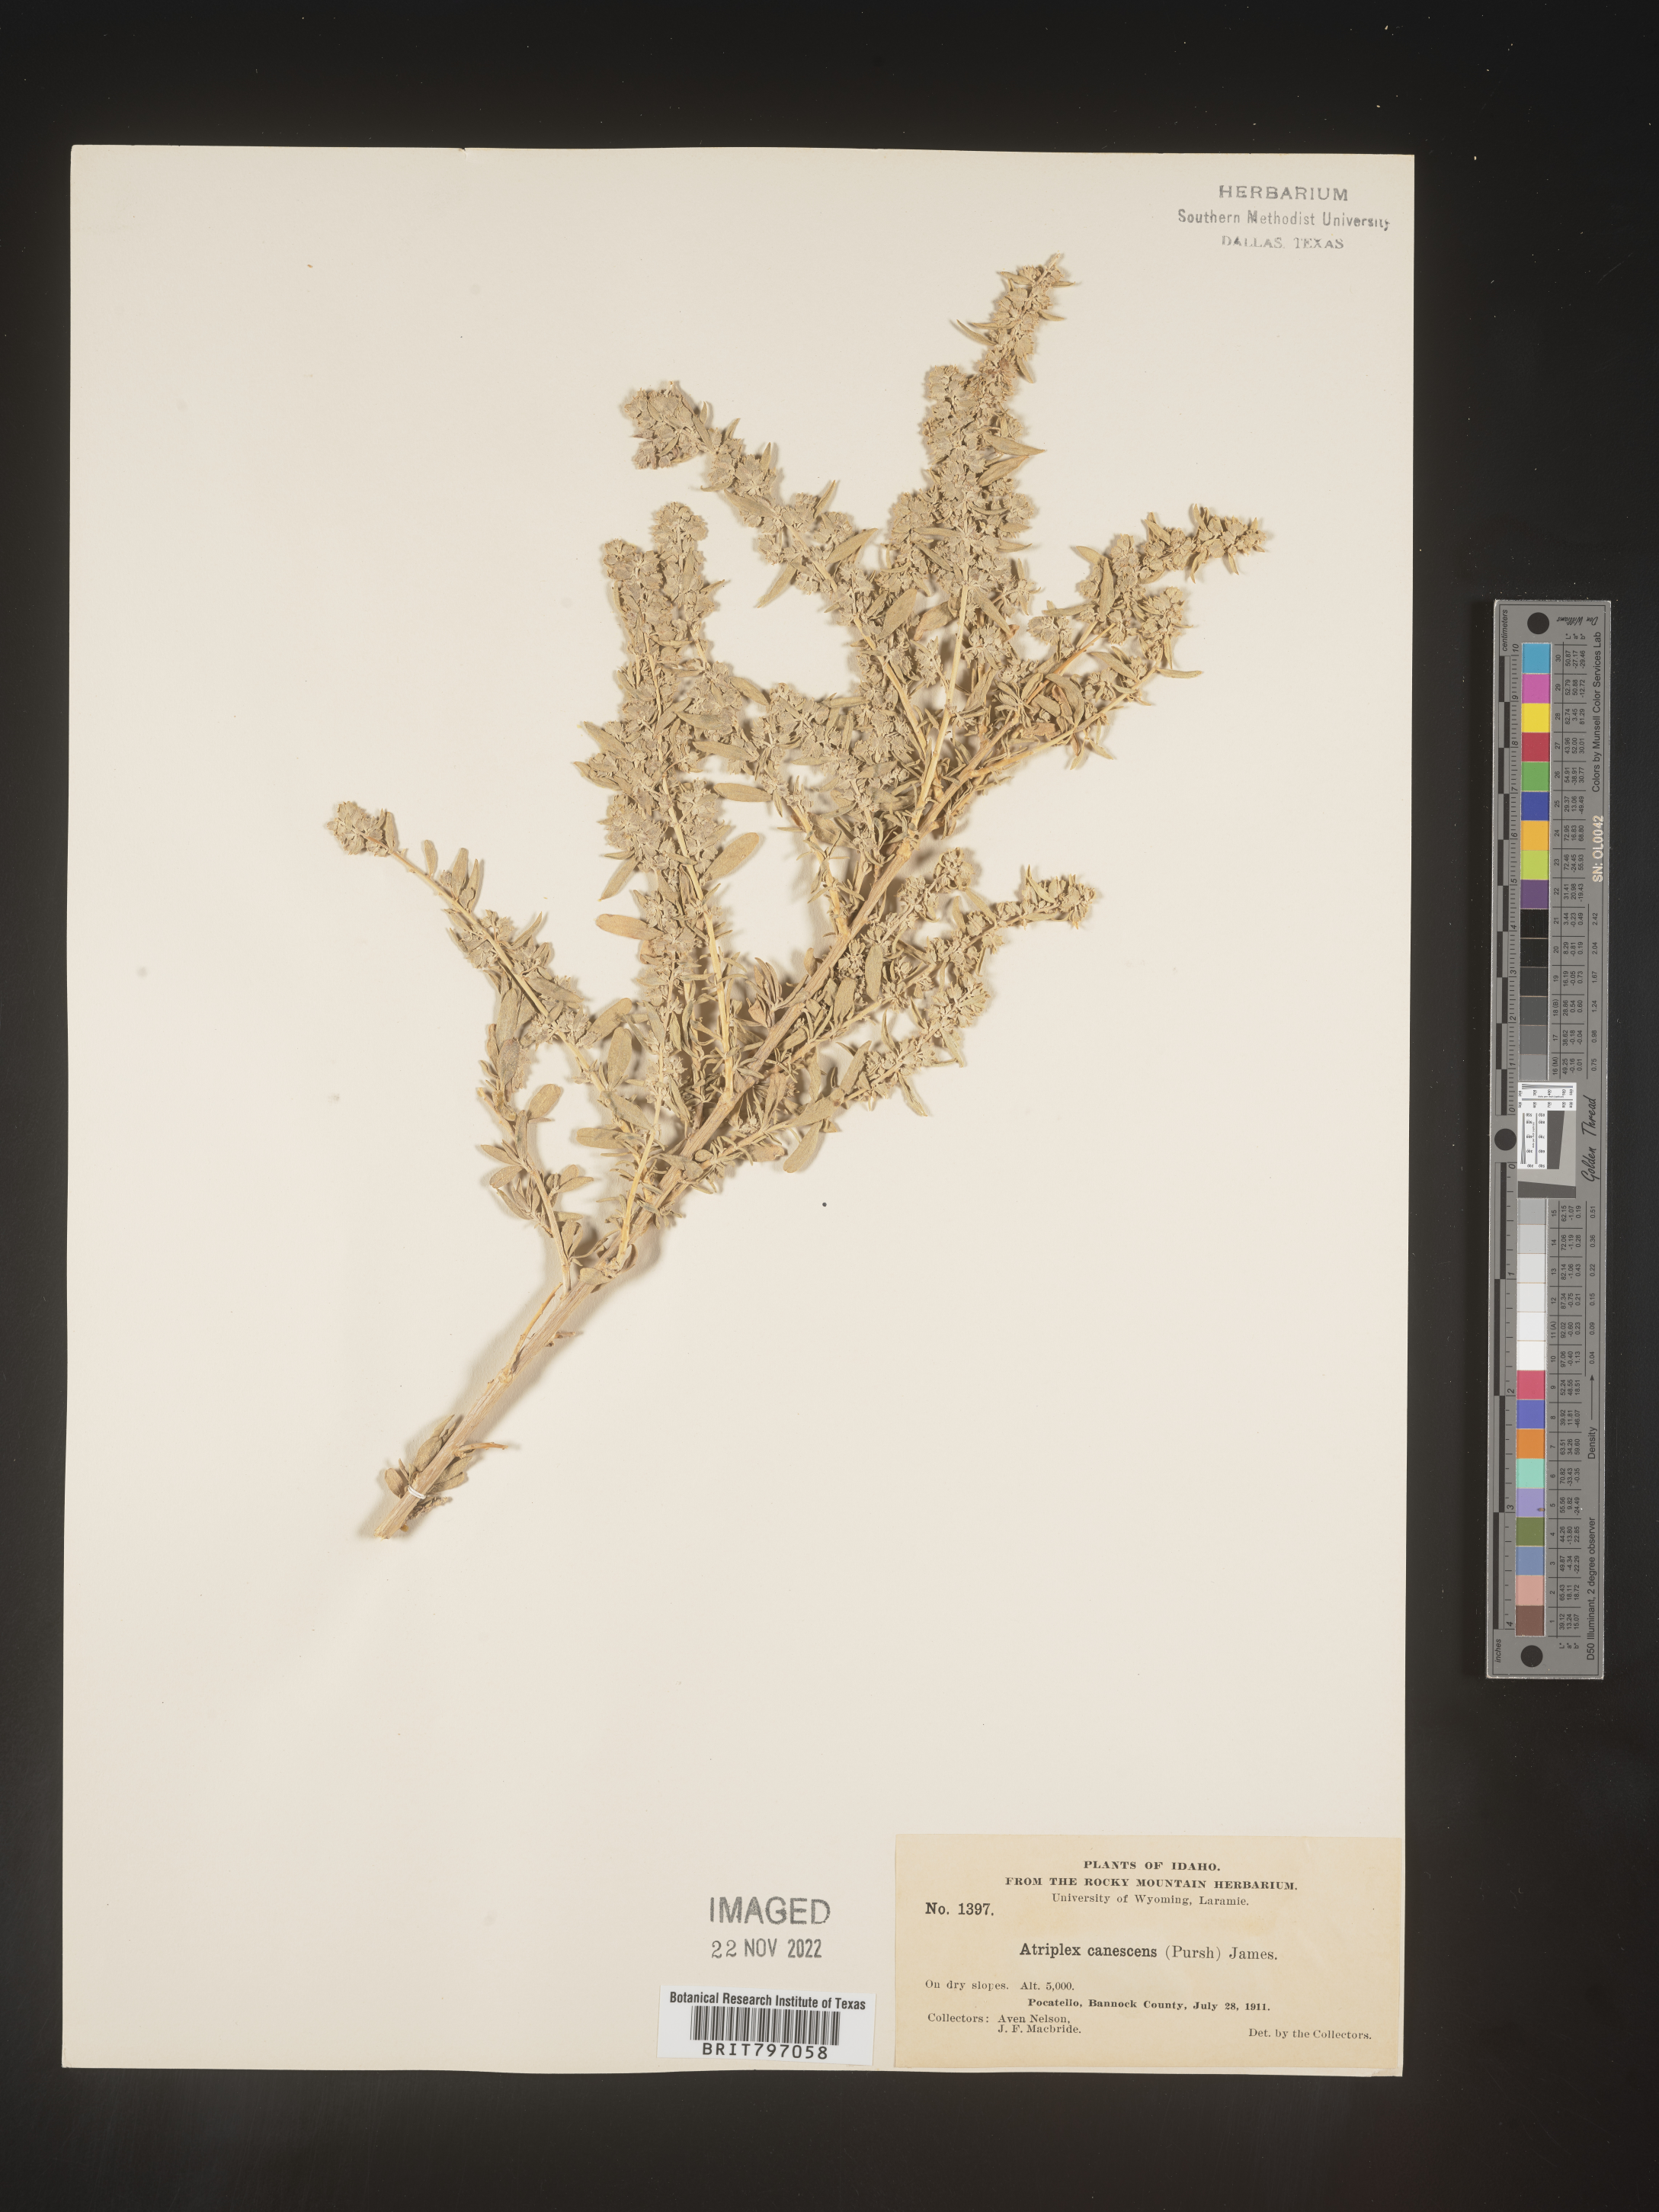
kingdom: Plantae
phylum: Tracheophyta
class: Magnoliopsida
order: Caryophyllales
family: Amaranthaceae
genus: Atriplex
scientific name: Atriplex canescens
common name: Four-wing saltbush
